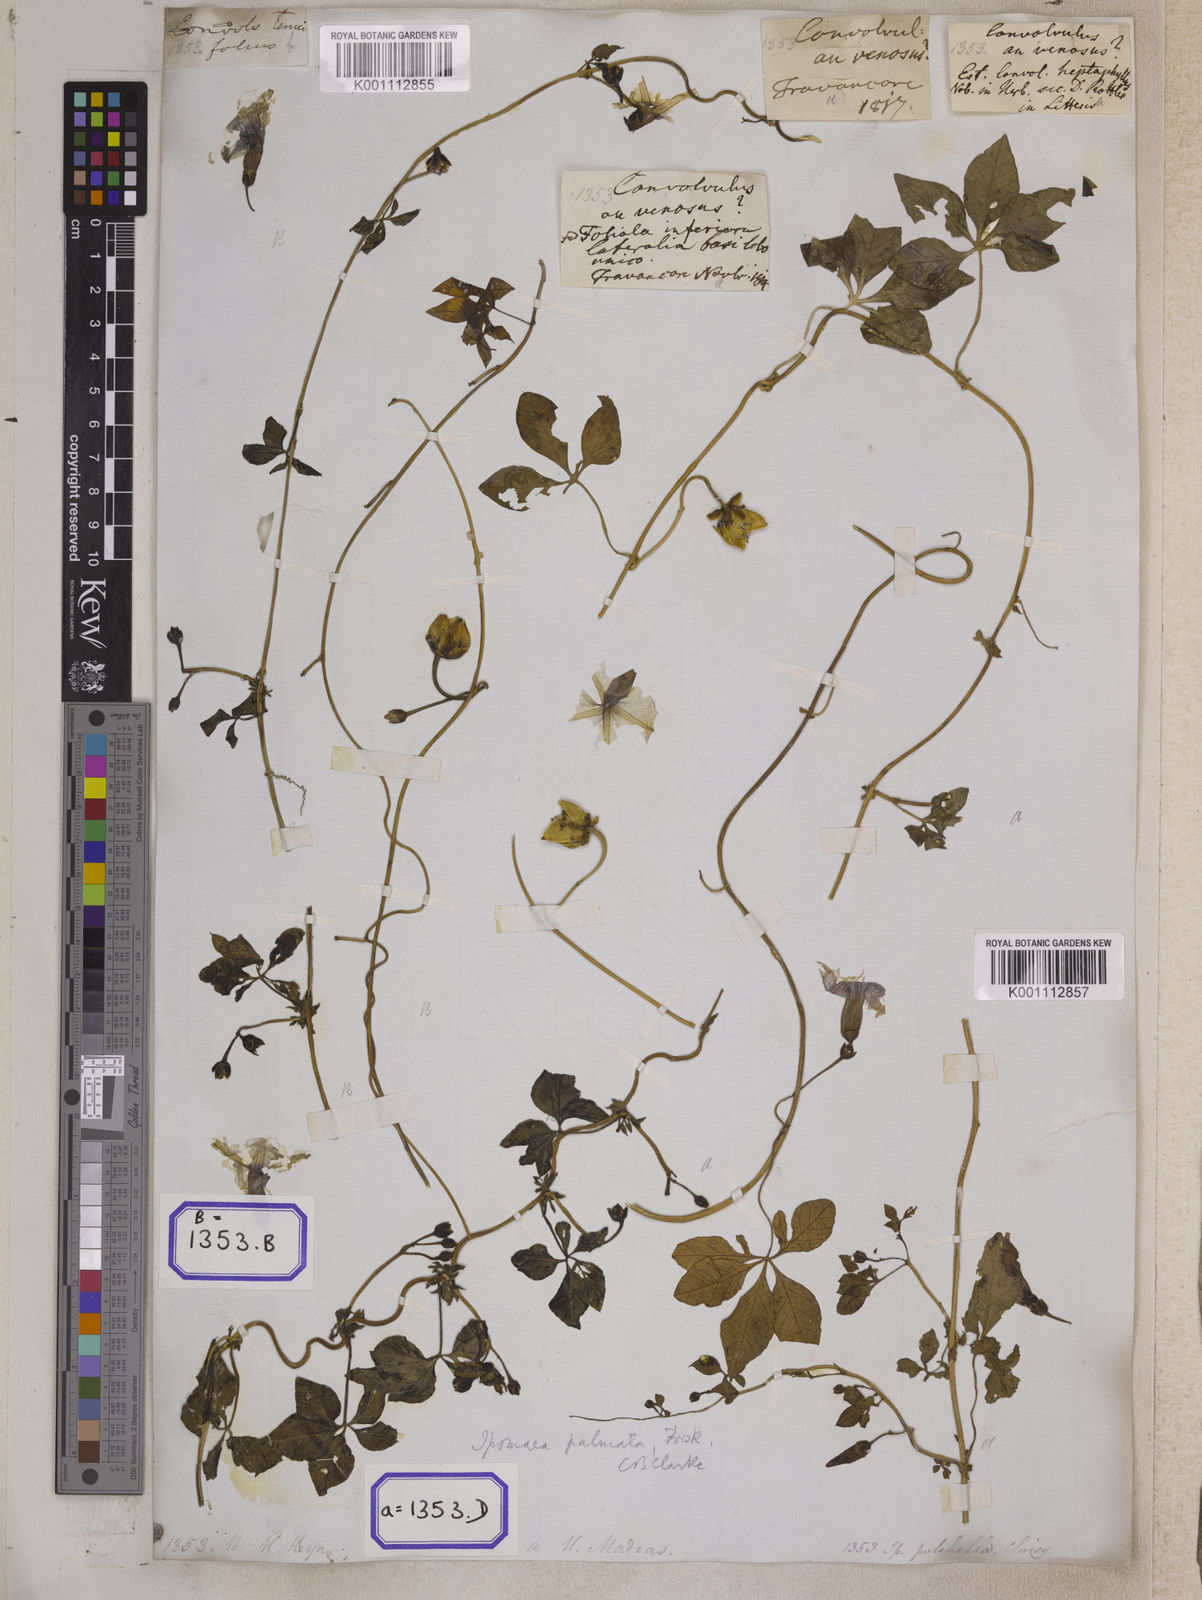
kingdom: Plantae
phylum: Tracheophyta
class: Magnoliopsida
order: Solanales
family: Convolvulaceae
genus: Ipomoea
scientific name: Ipomoea tenuipes
